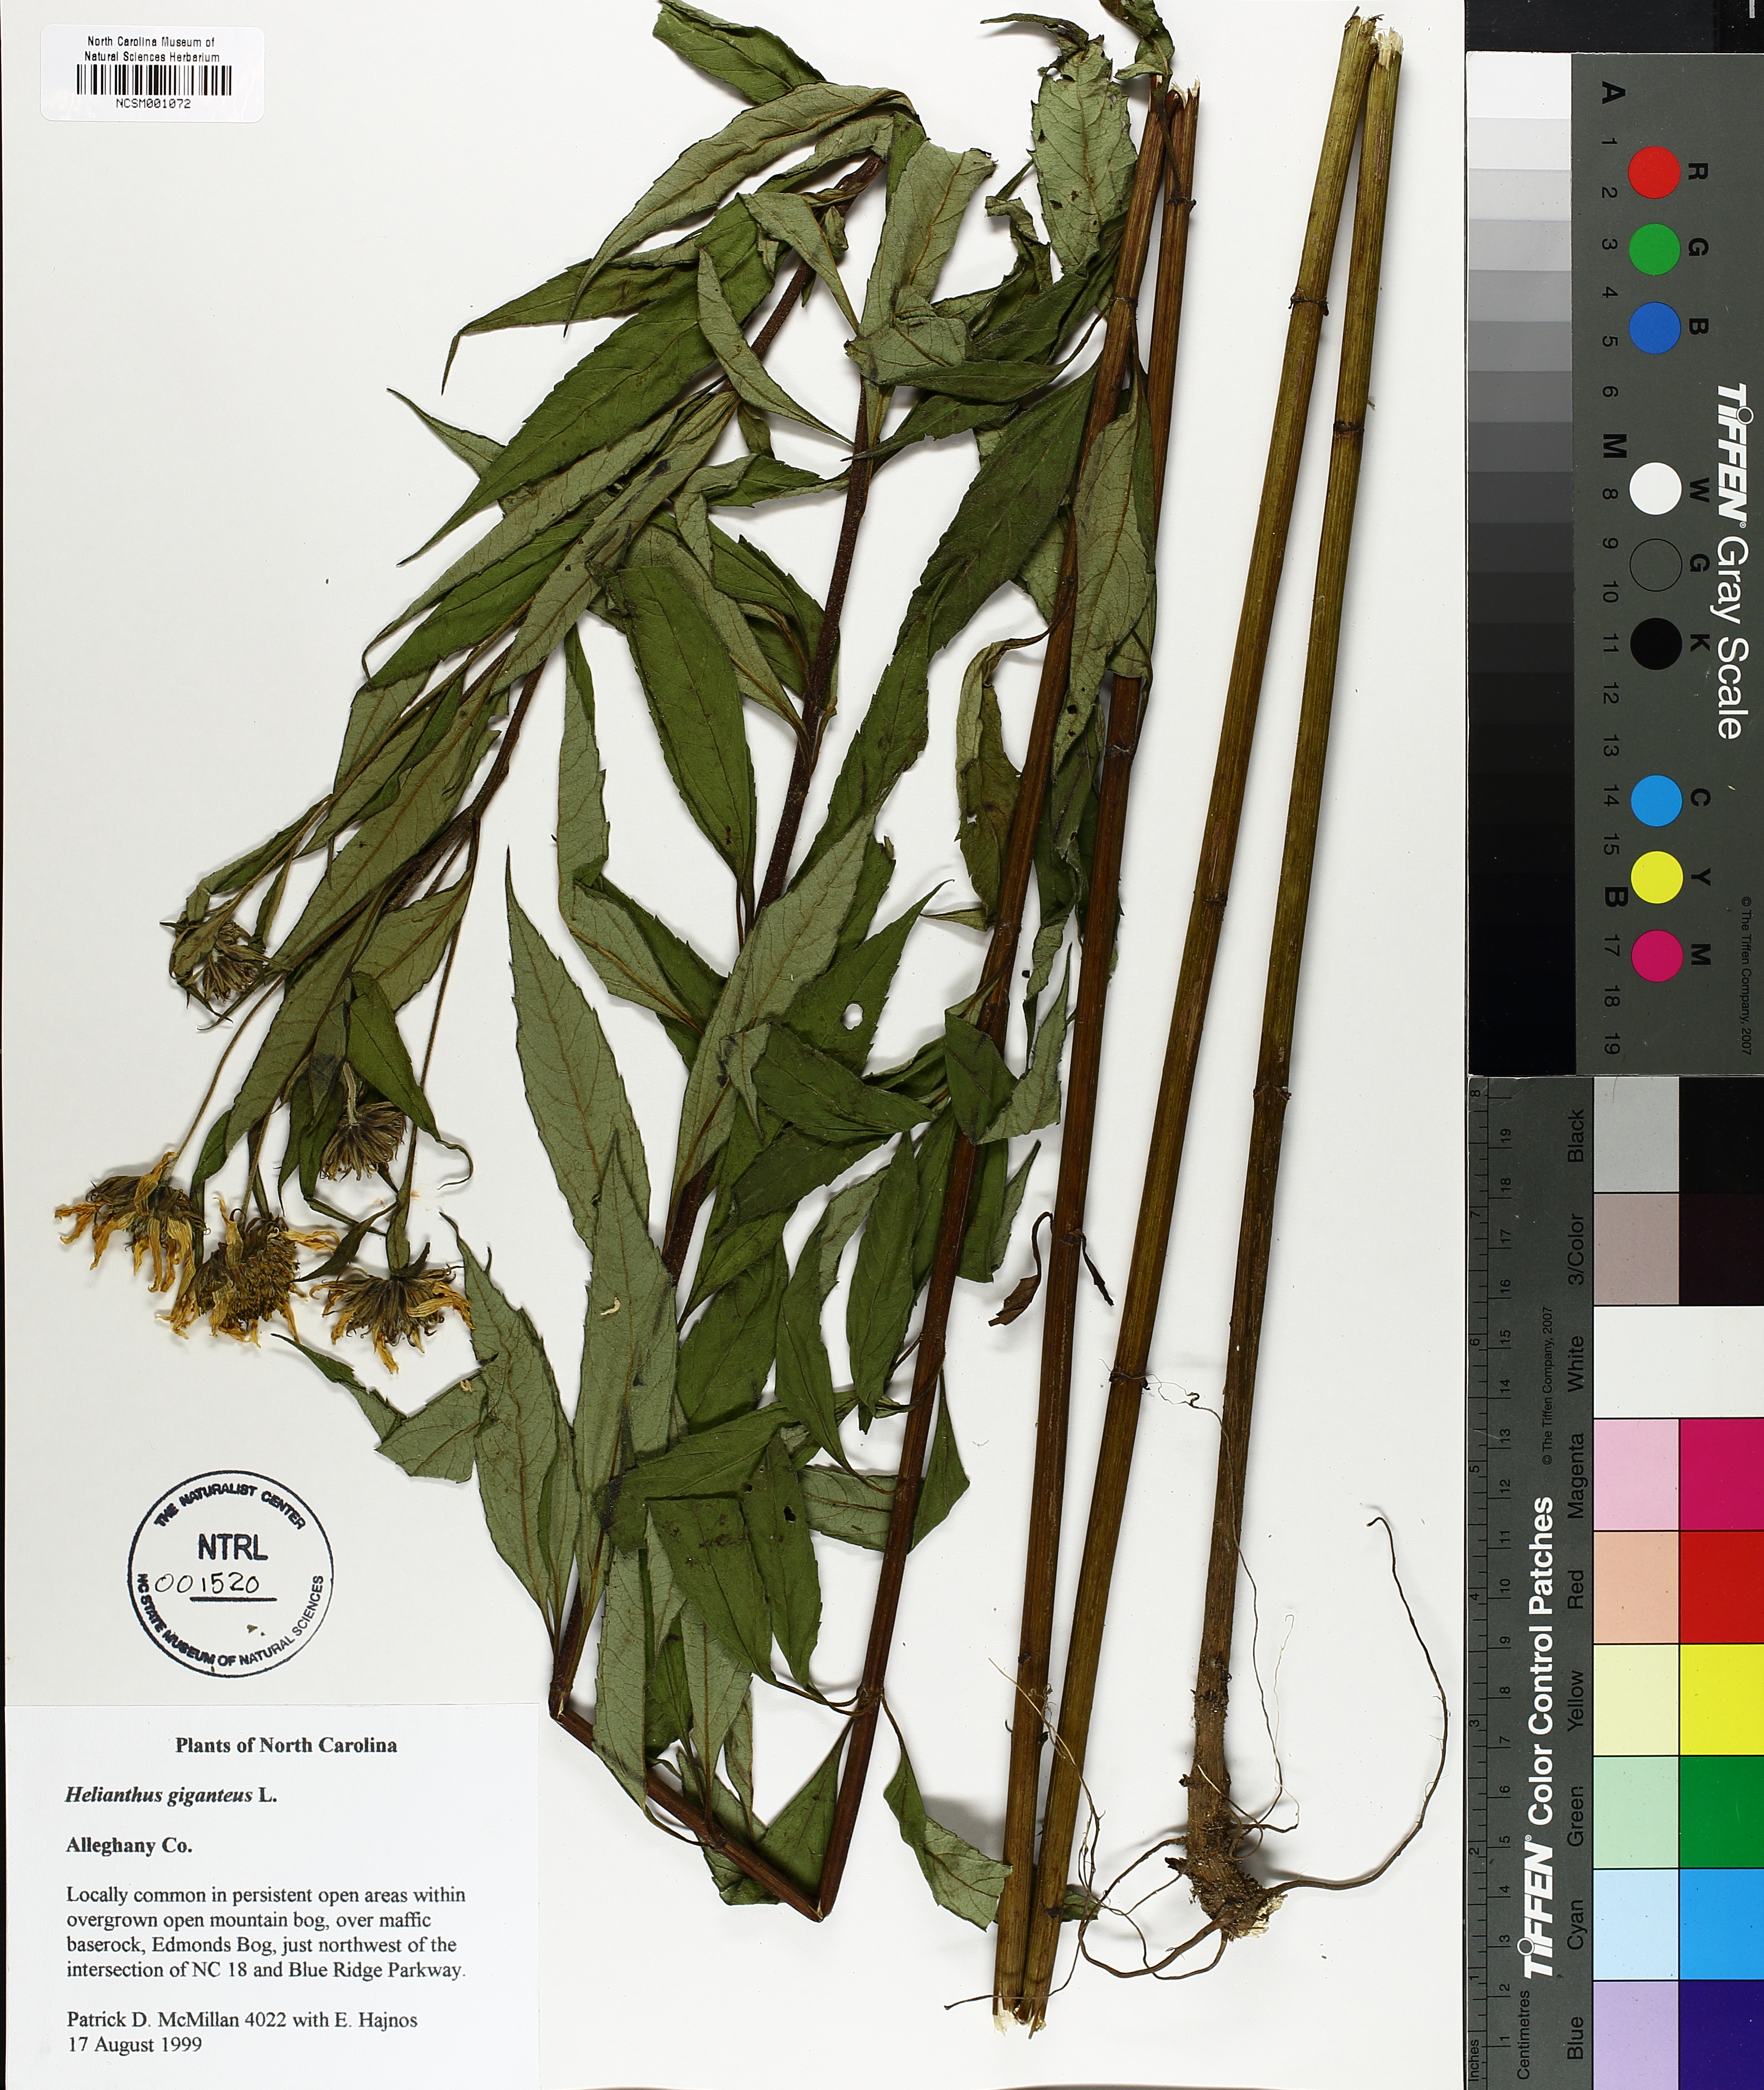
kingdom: Plantae
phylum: Tracheophyta
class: Magnoliopsida
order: Asterales
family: Asteraceae
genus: Helianthus
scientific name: Helianthus giganteus
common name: Giant sunflower
